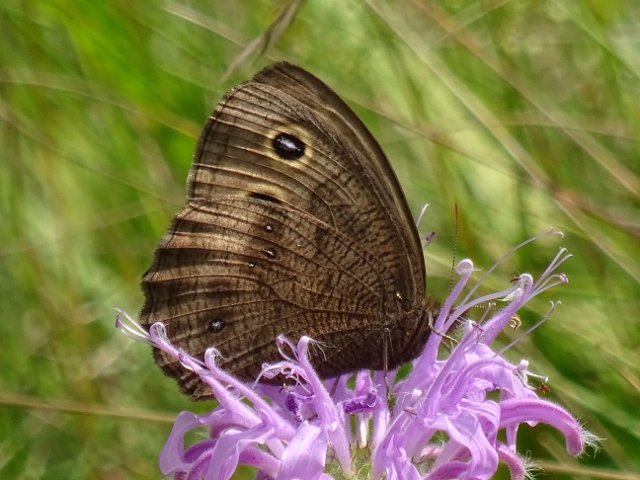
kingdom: Animalia
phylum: Arthropoda
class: Insecta
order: Lepidoptera
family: Nymphalidae
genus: Cercyonis
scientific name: Cercyonis pegala
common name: Common Wood-Nymph
